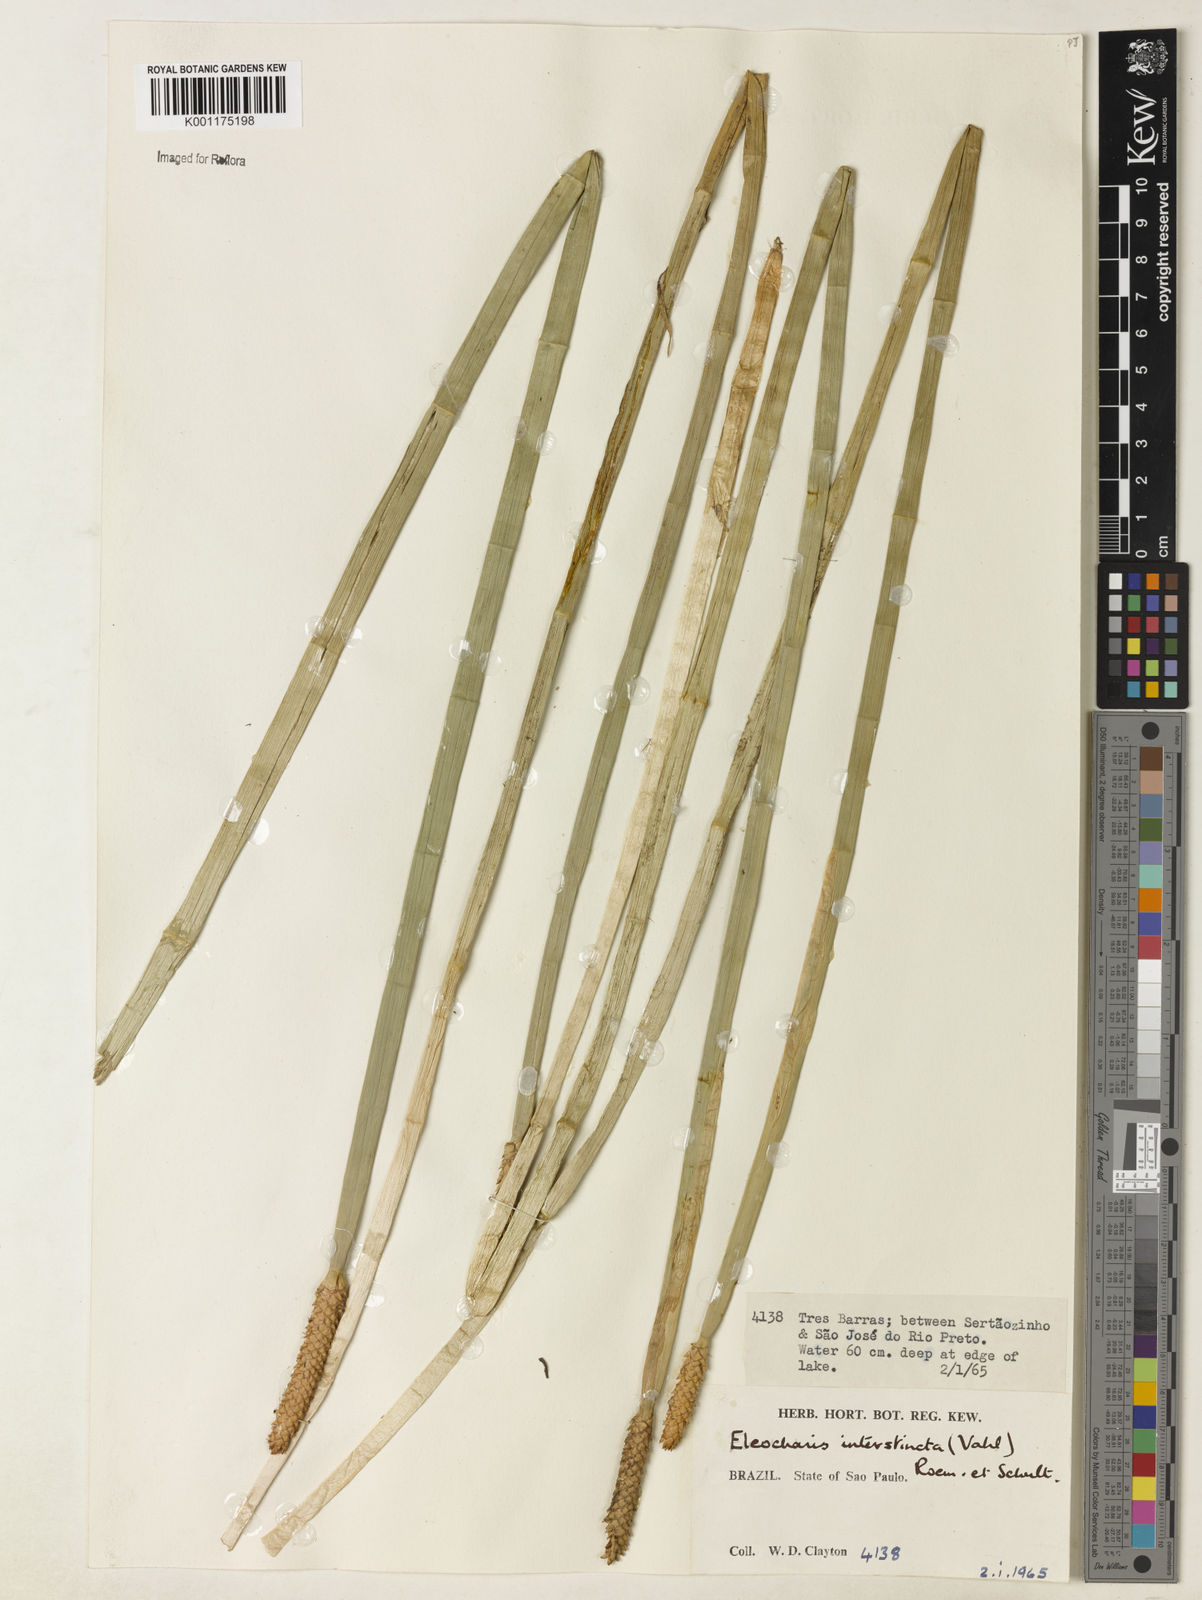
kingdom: Plantae
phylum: Tracheophyta
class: Liliopsida
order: Poales
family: Cyperaceae
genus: Eleocharis
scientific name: Eleocharis interstincta
